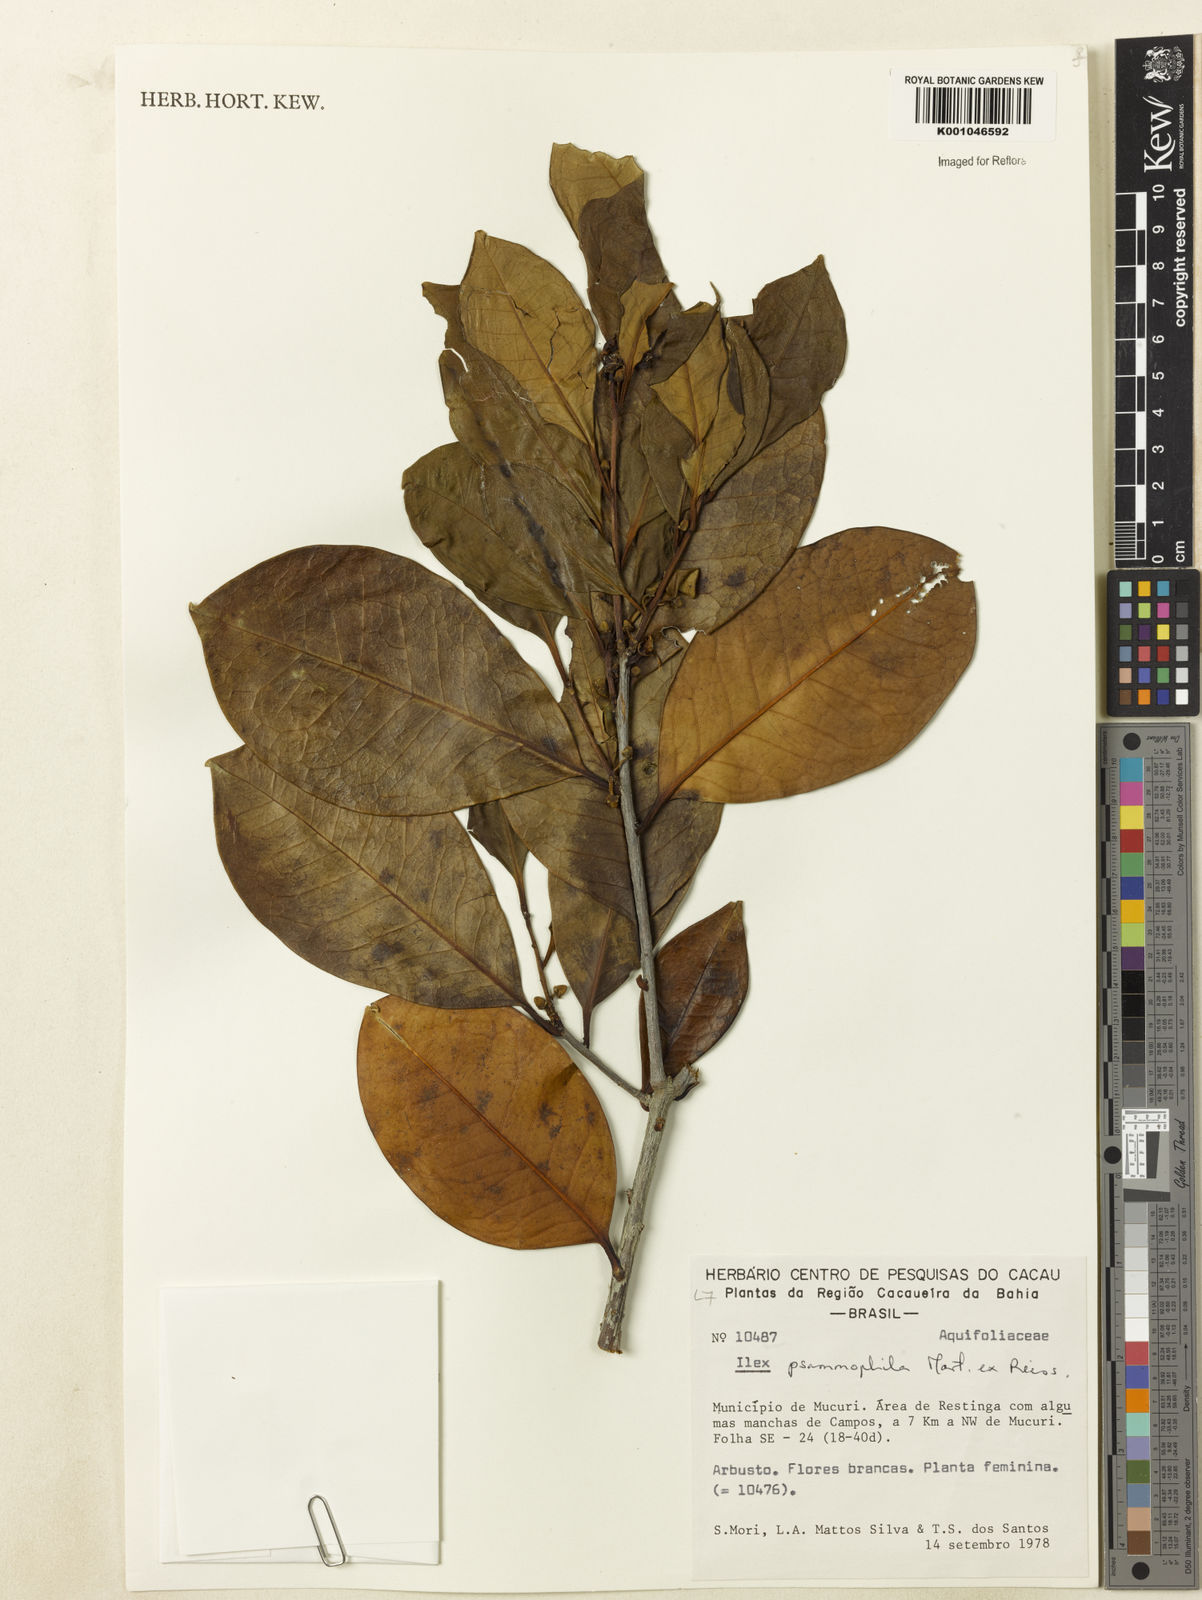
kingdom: Plantae
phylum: Tracheophyta
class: Magnoliopsida
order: Aquifoliales
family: Aquifoliaceae
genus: Ilex
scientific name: Ilex psammophila
